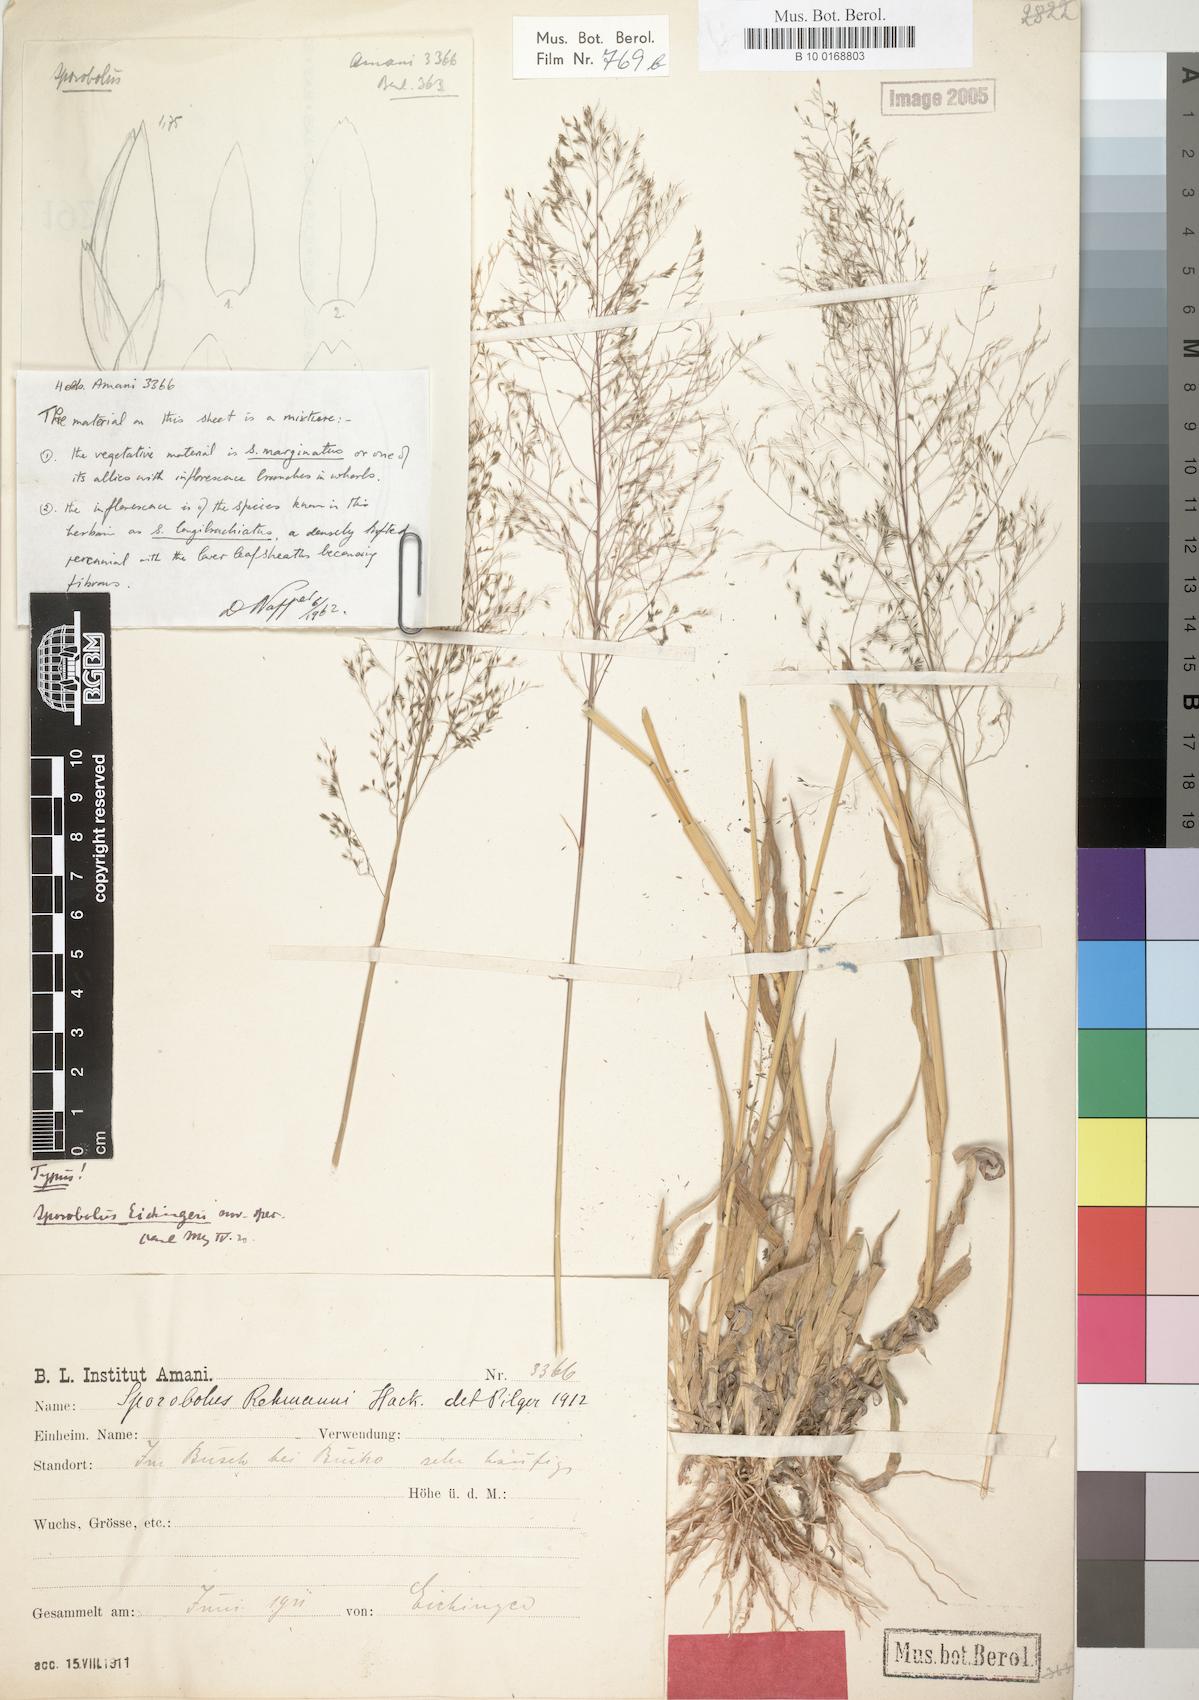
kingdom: Plantae
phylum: Tracheophyta
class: Liliopsida
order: Poales
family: Poaceae
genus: Sporobolus
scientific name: Sporobolus nervosus
